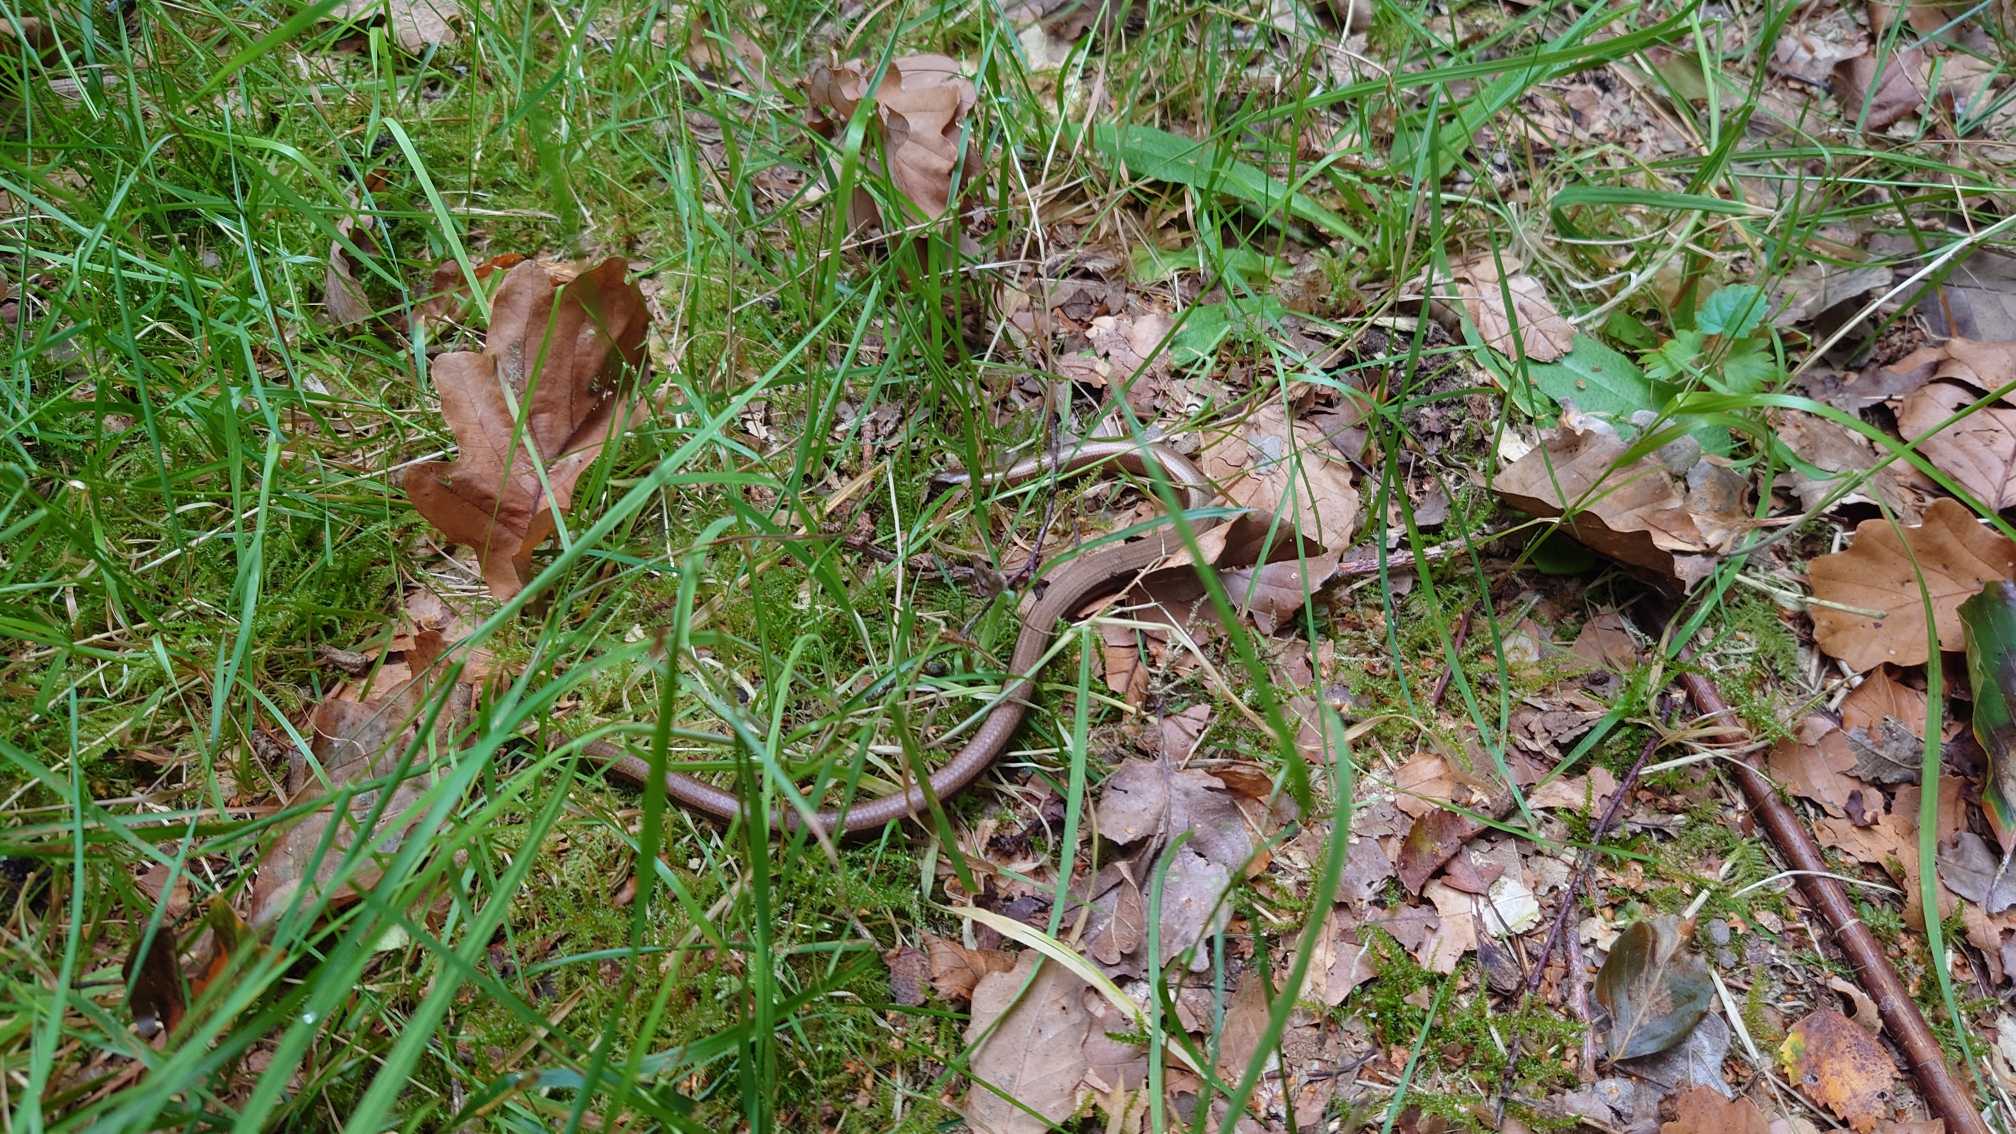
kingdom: Animalia
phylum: Chordata
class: Squamata
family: Anguidae
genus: Anguis
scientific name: Anguis fragilis
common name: Stålorm
